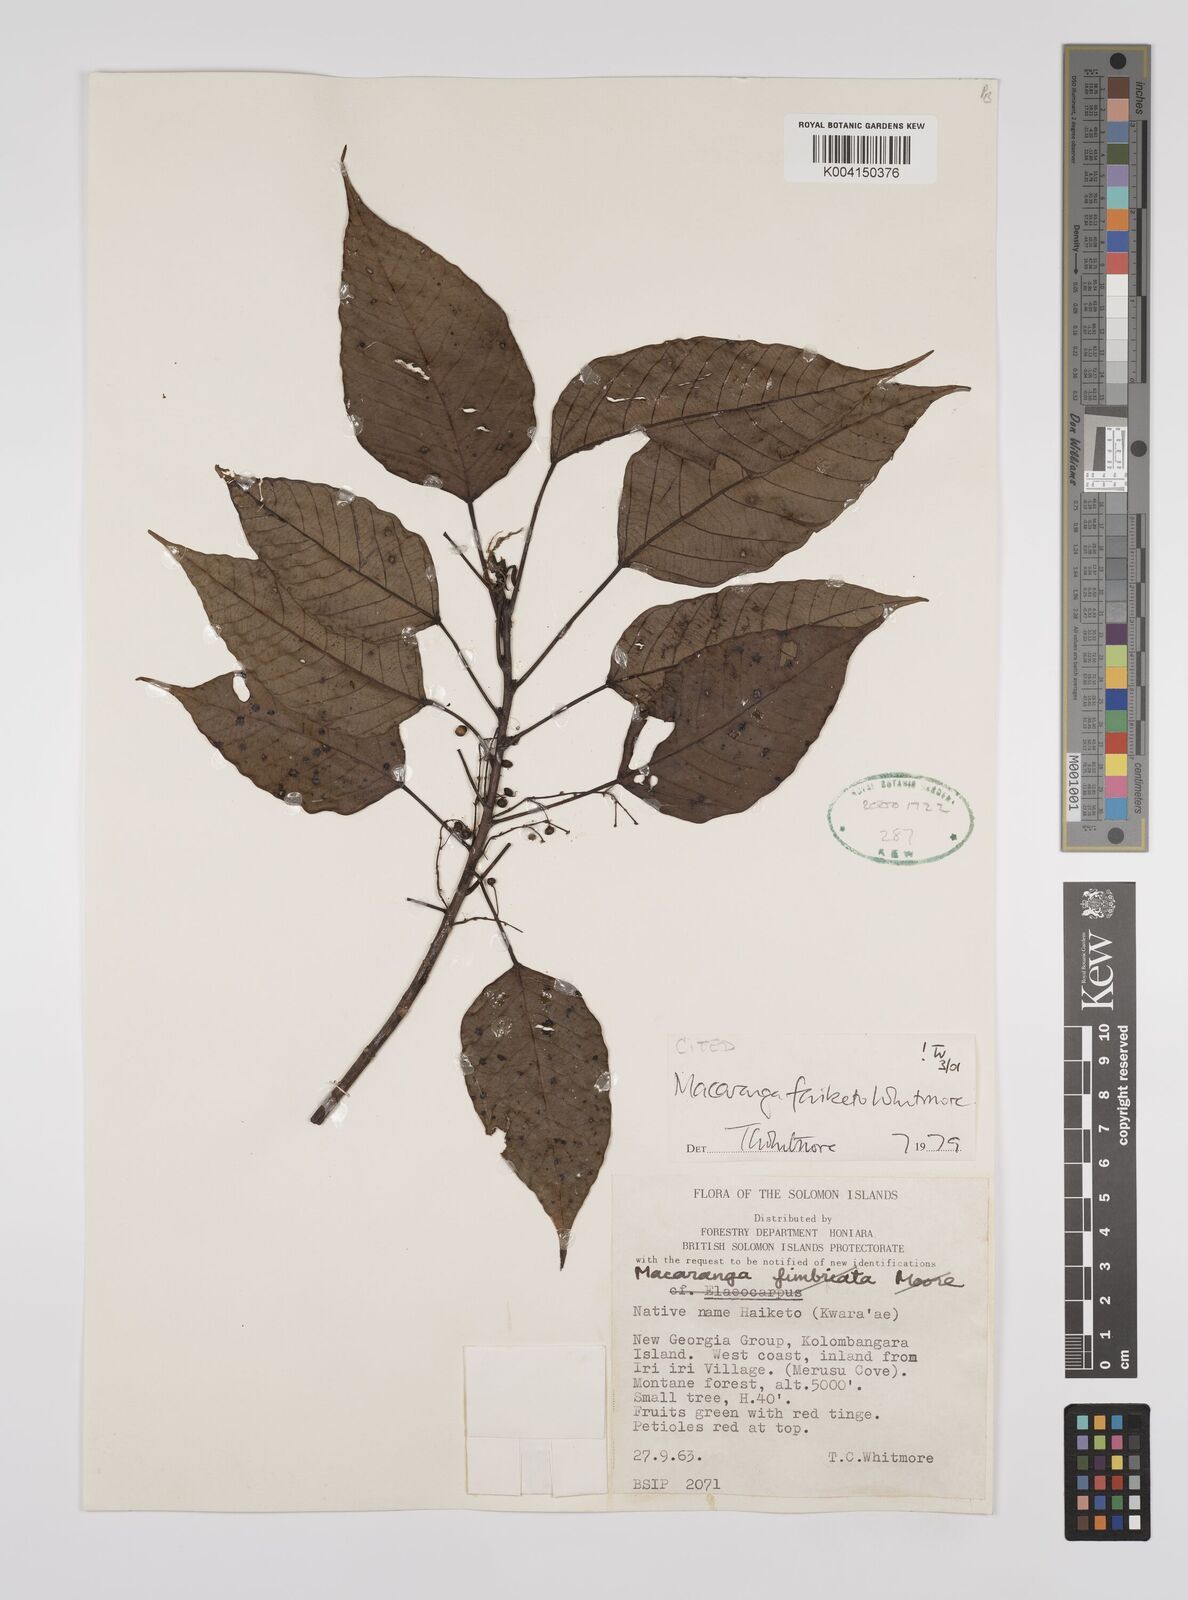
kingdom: Plantae
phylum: Tracheophyta
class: Magnoliopsida
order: Malpighiales
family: Euphorbiaceae
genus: Macaranga
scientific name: Macaranga faiketo
